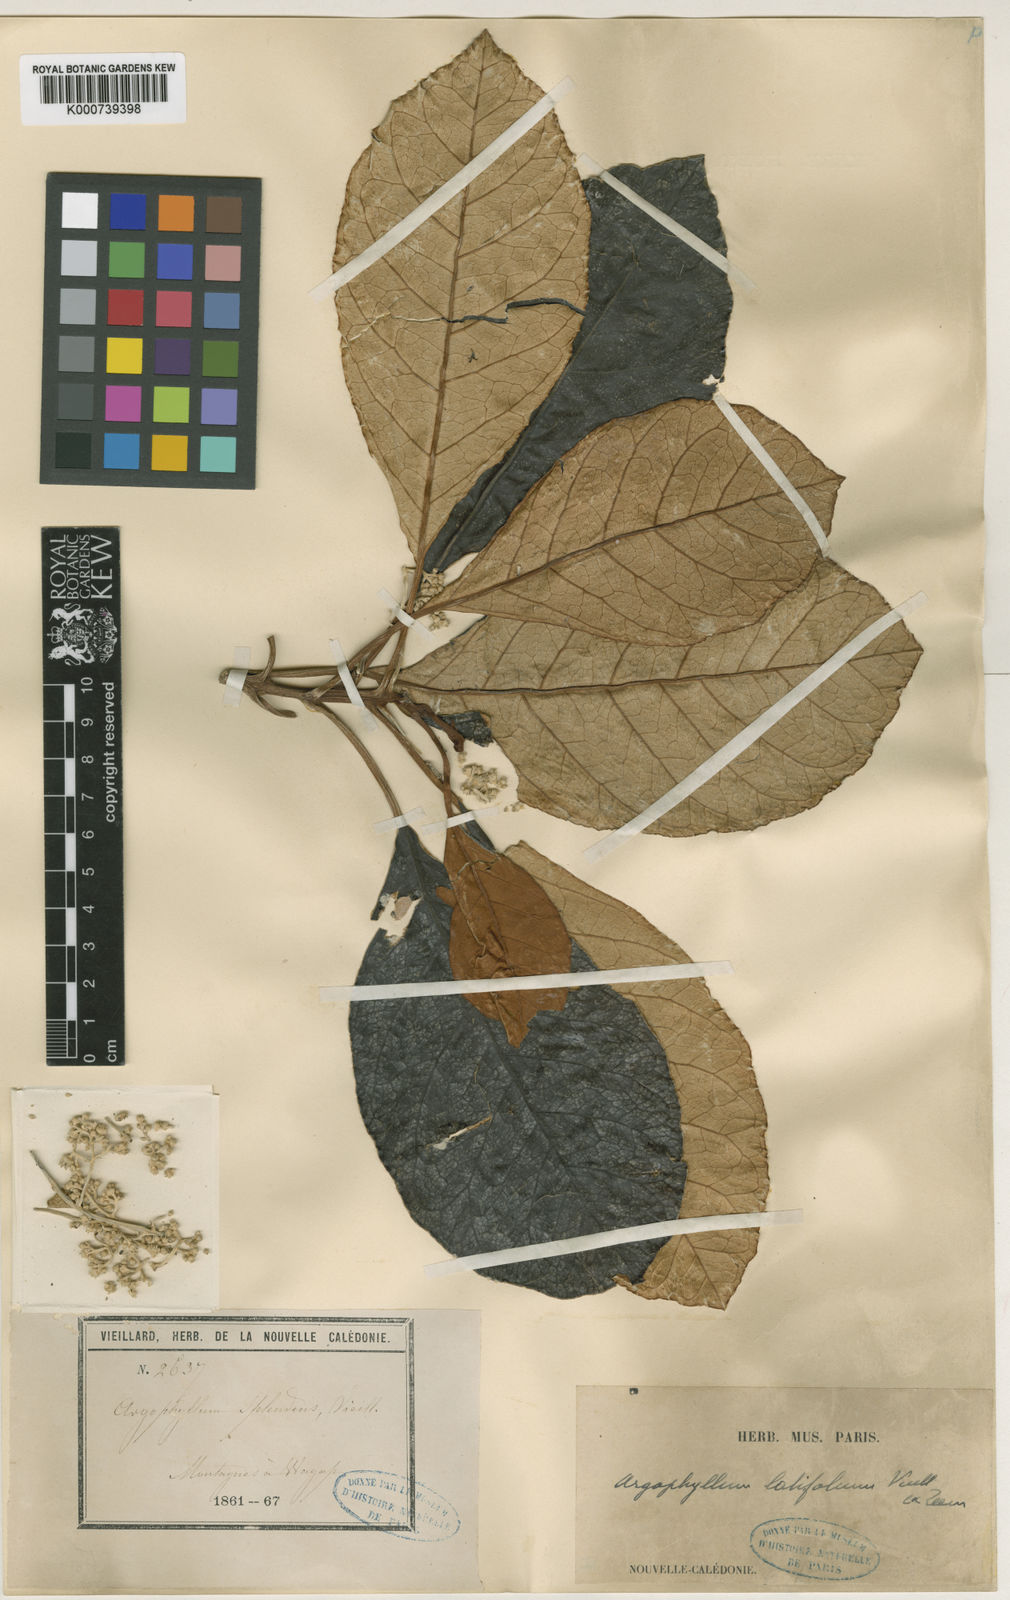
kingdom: Plantae
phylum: Tracheophyta
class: Magnoliopsida
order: Asterales
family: Argophyllaceae
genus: Argophyllum
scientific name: Argophyllum grunowii
